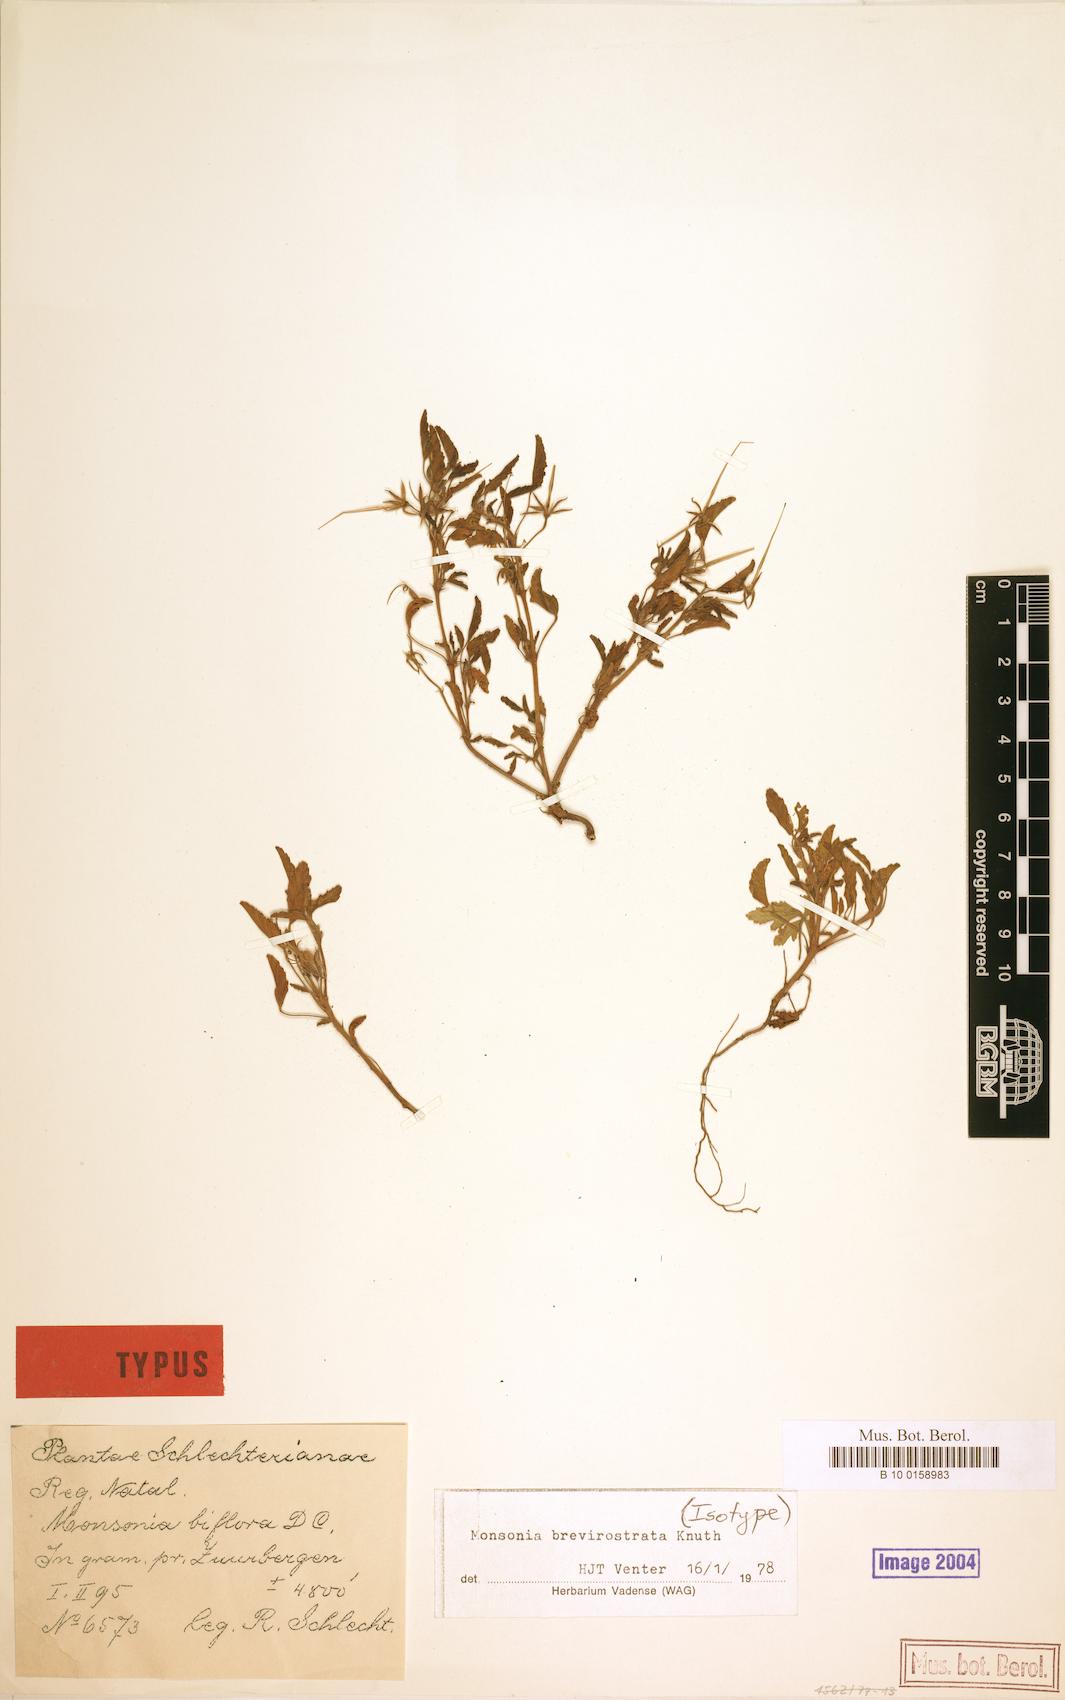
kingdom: Plantae
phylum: Tracheophyta
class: Magnoliopsida
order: Geraniales
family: Geraniaceae
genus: Monsonia
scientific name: Monsonia brevirostrata
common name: Short-fruited dysentery-herb
